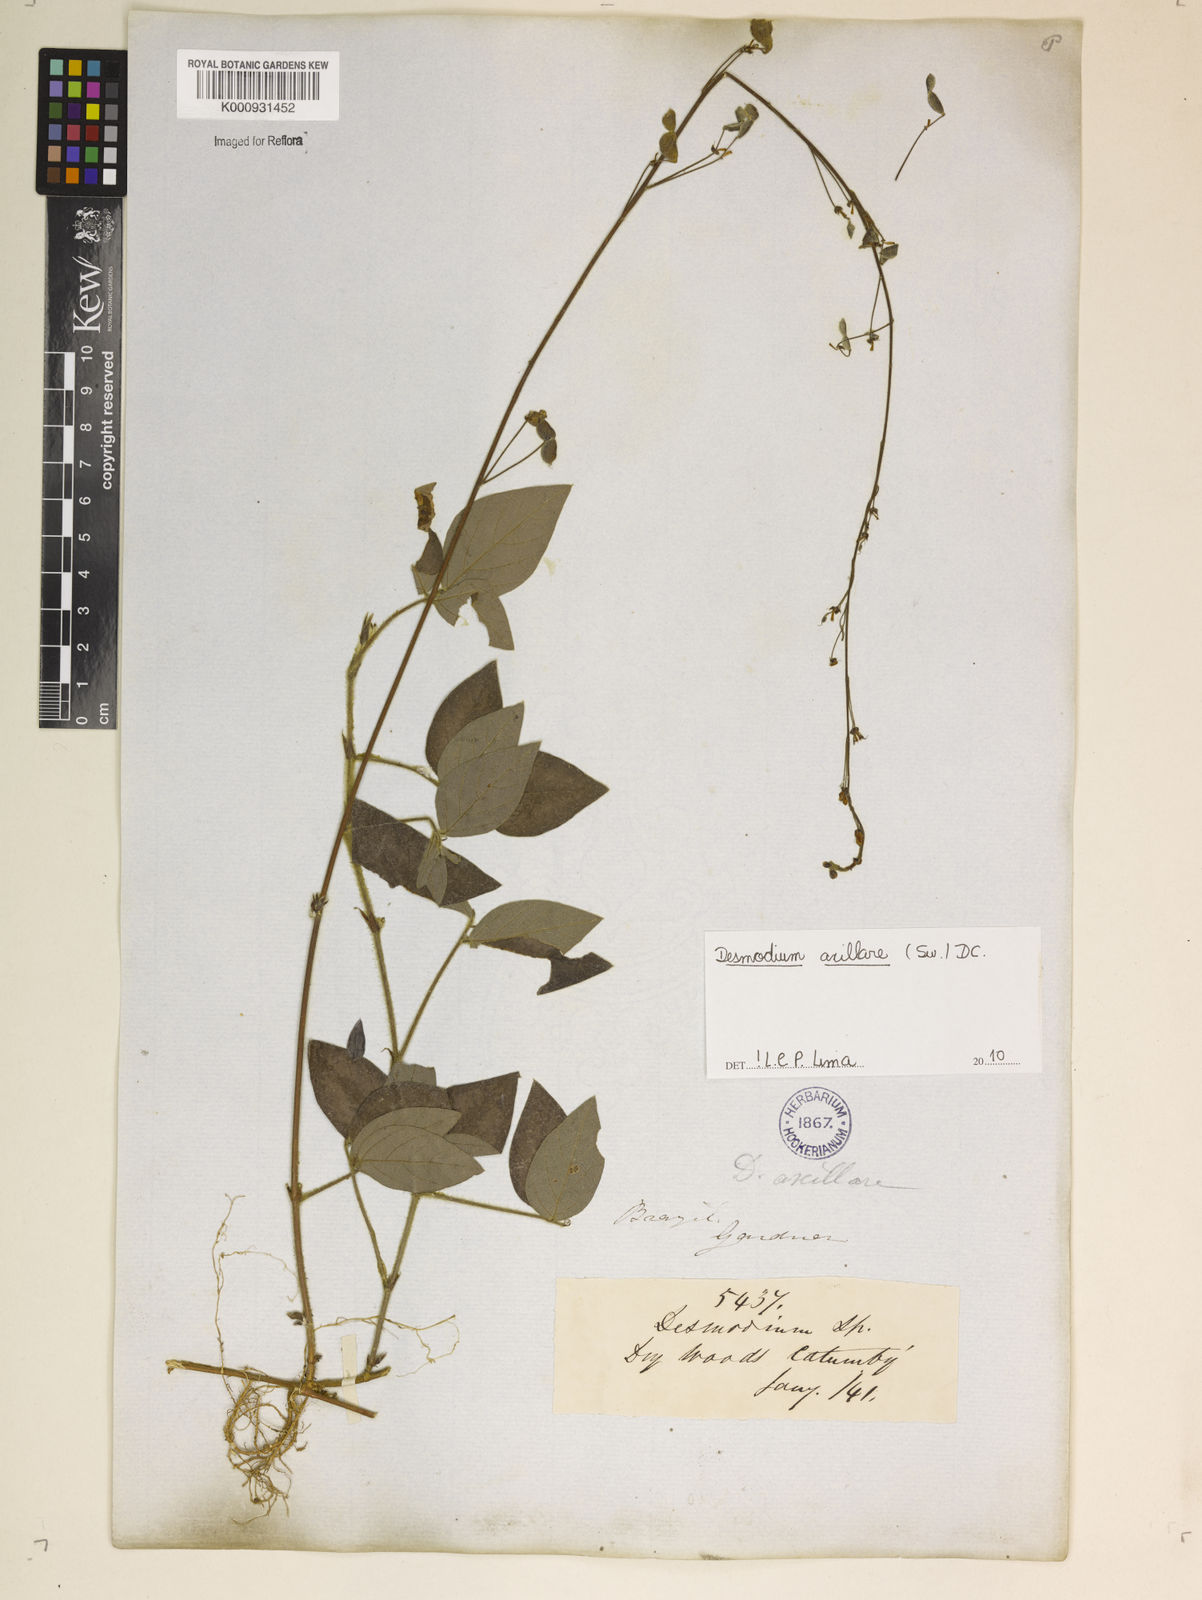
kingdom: Plantae
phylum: Tracheophyta
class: Magnoliopsida
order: Fabales
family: Fabaceae
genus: Desmodium
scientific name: Desmodium axillare
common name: Wire with
